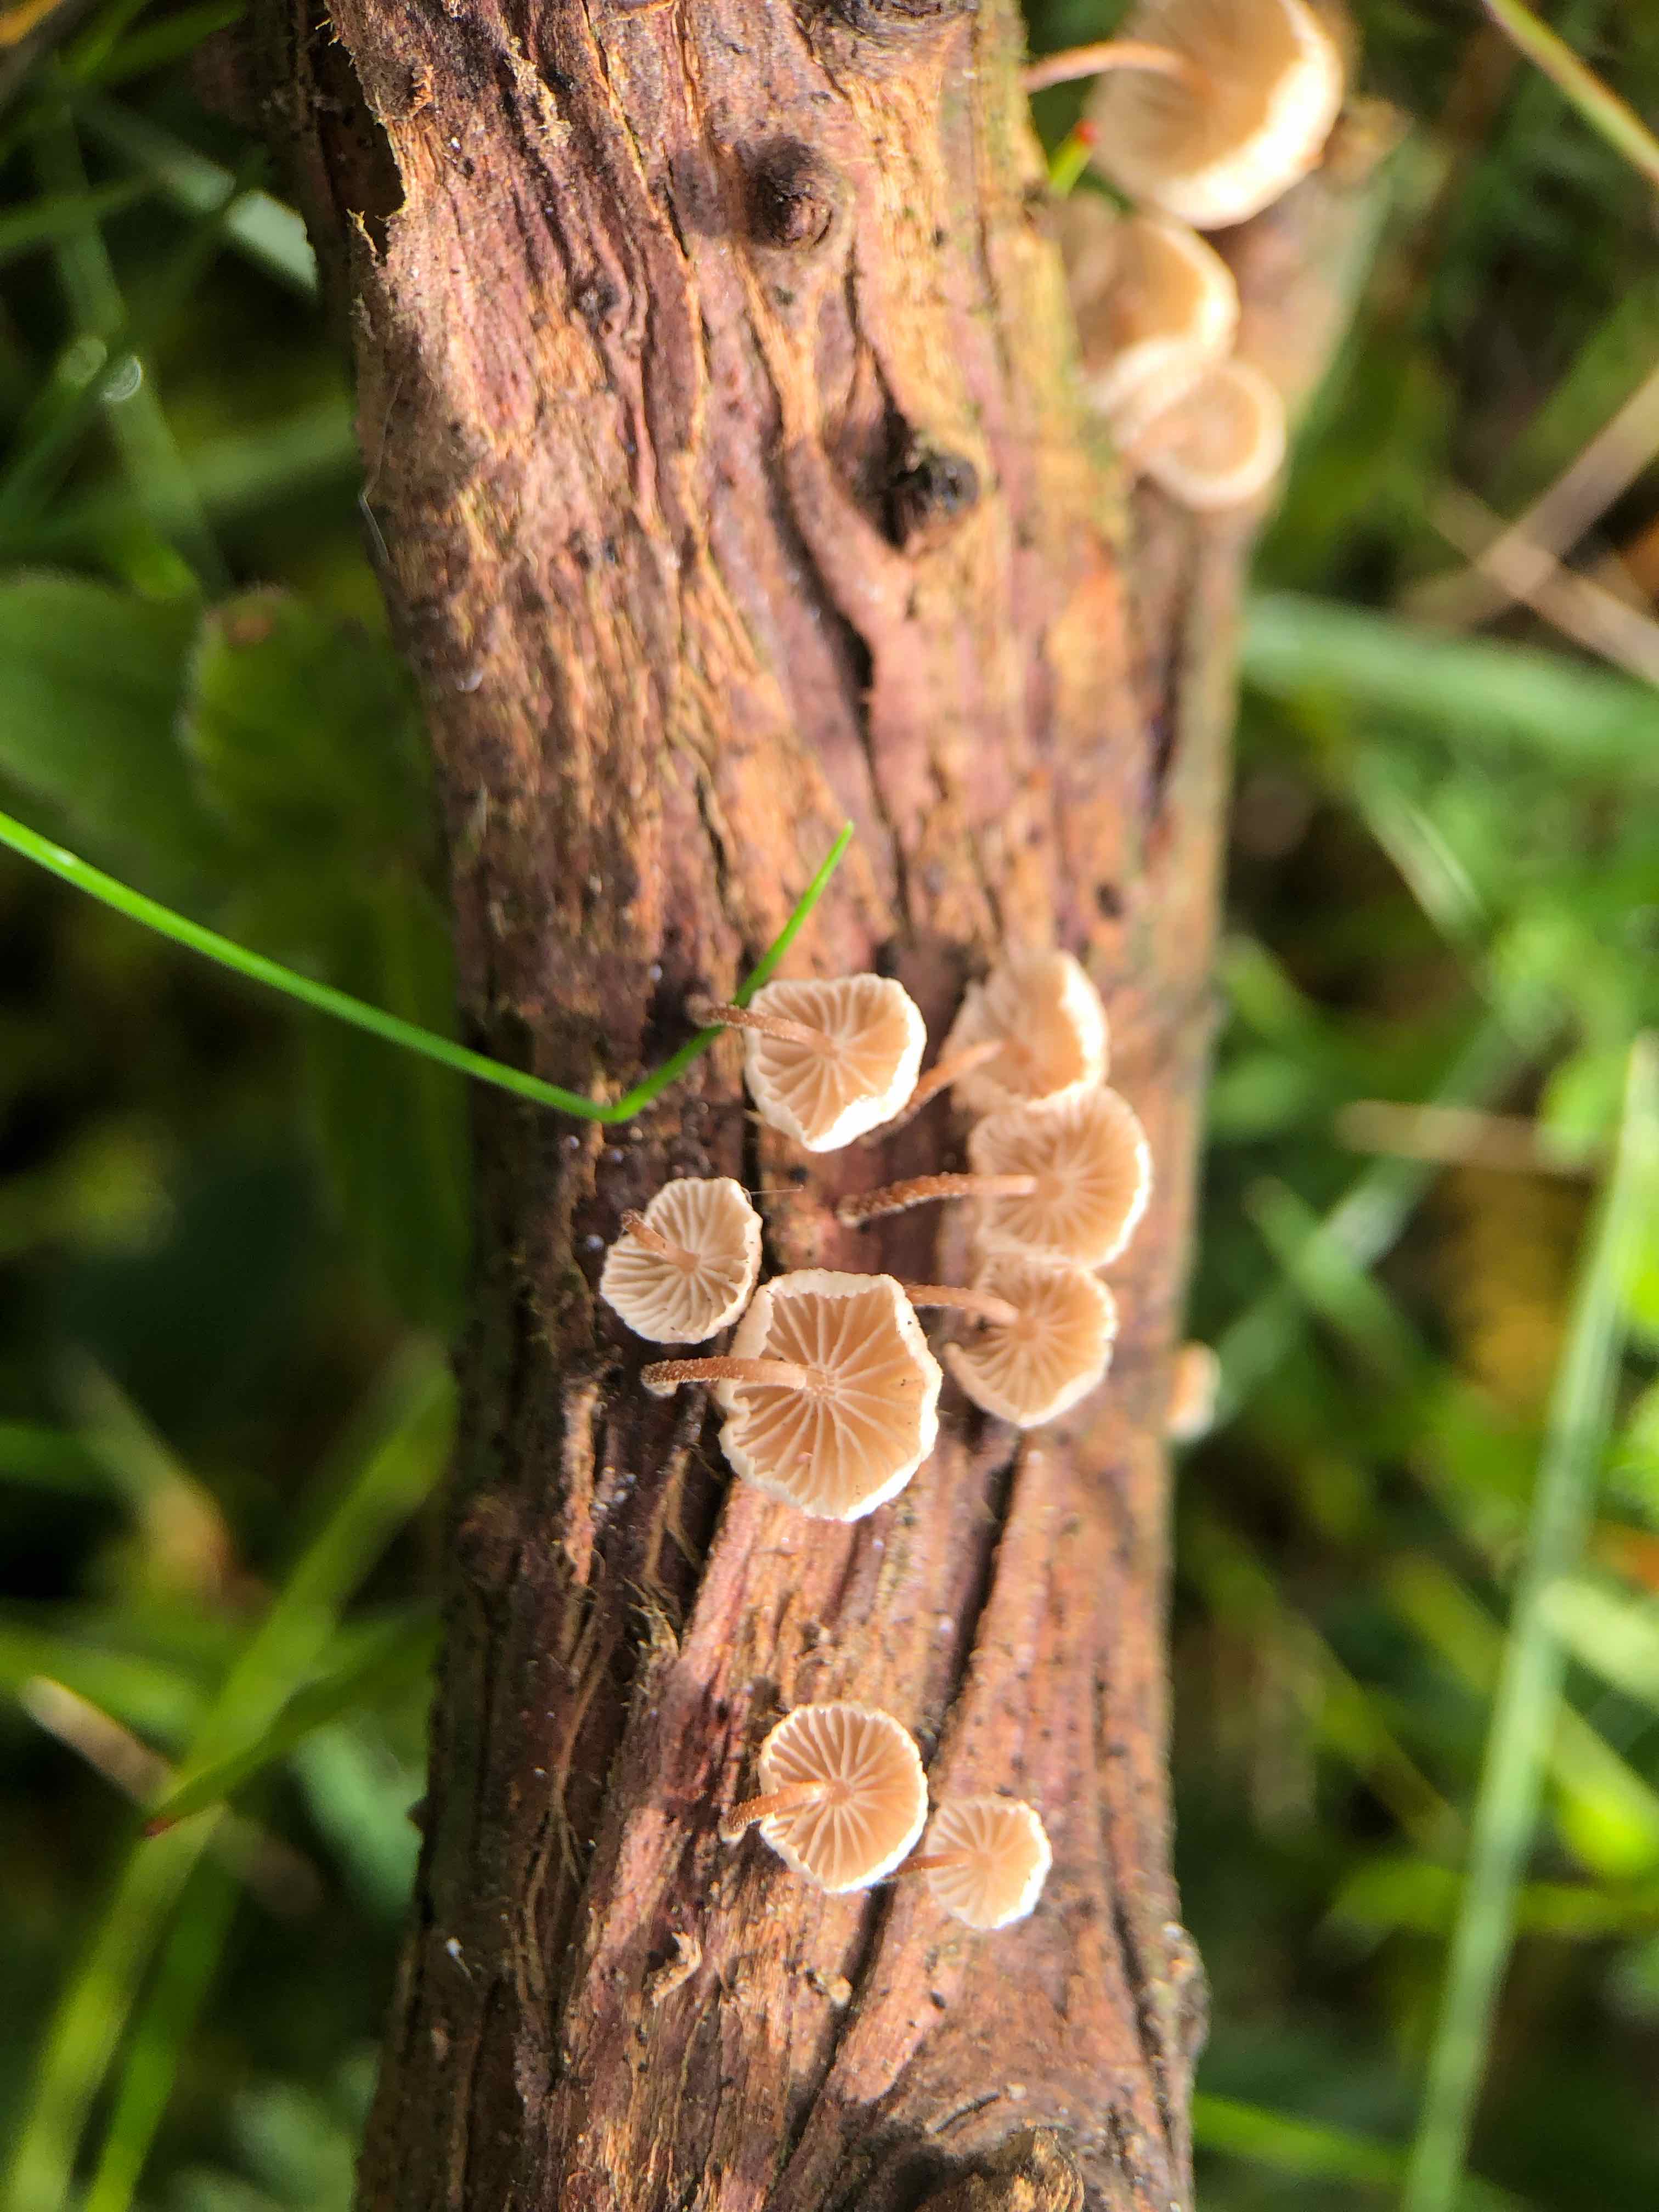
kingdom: Fungi
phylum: Basidiomycota
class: Agaricomycetes
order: Agaricales
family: Omphalotaceae
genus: Collybiopsis
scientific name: Collybiopsis ramealis
